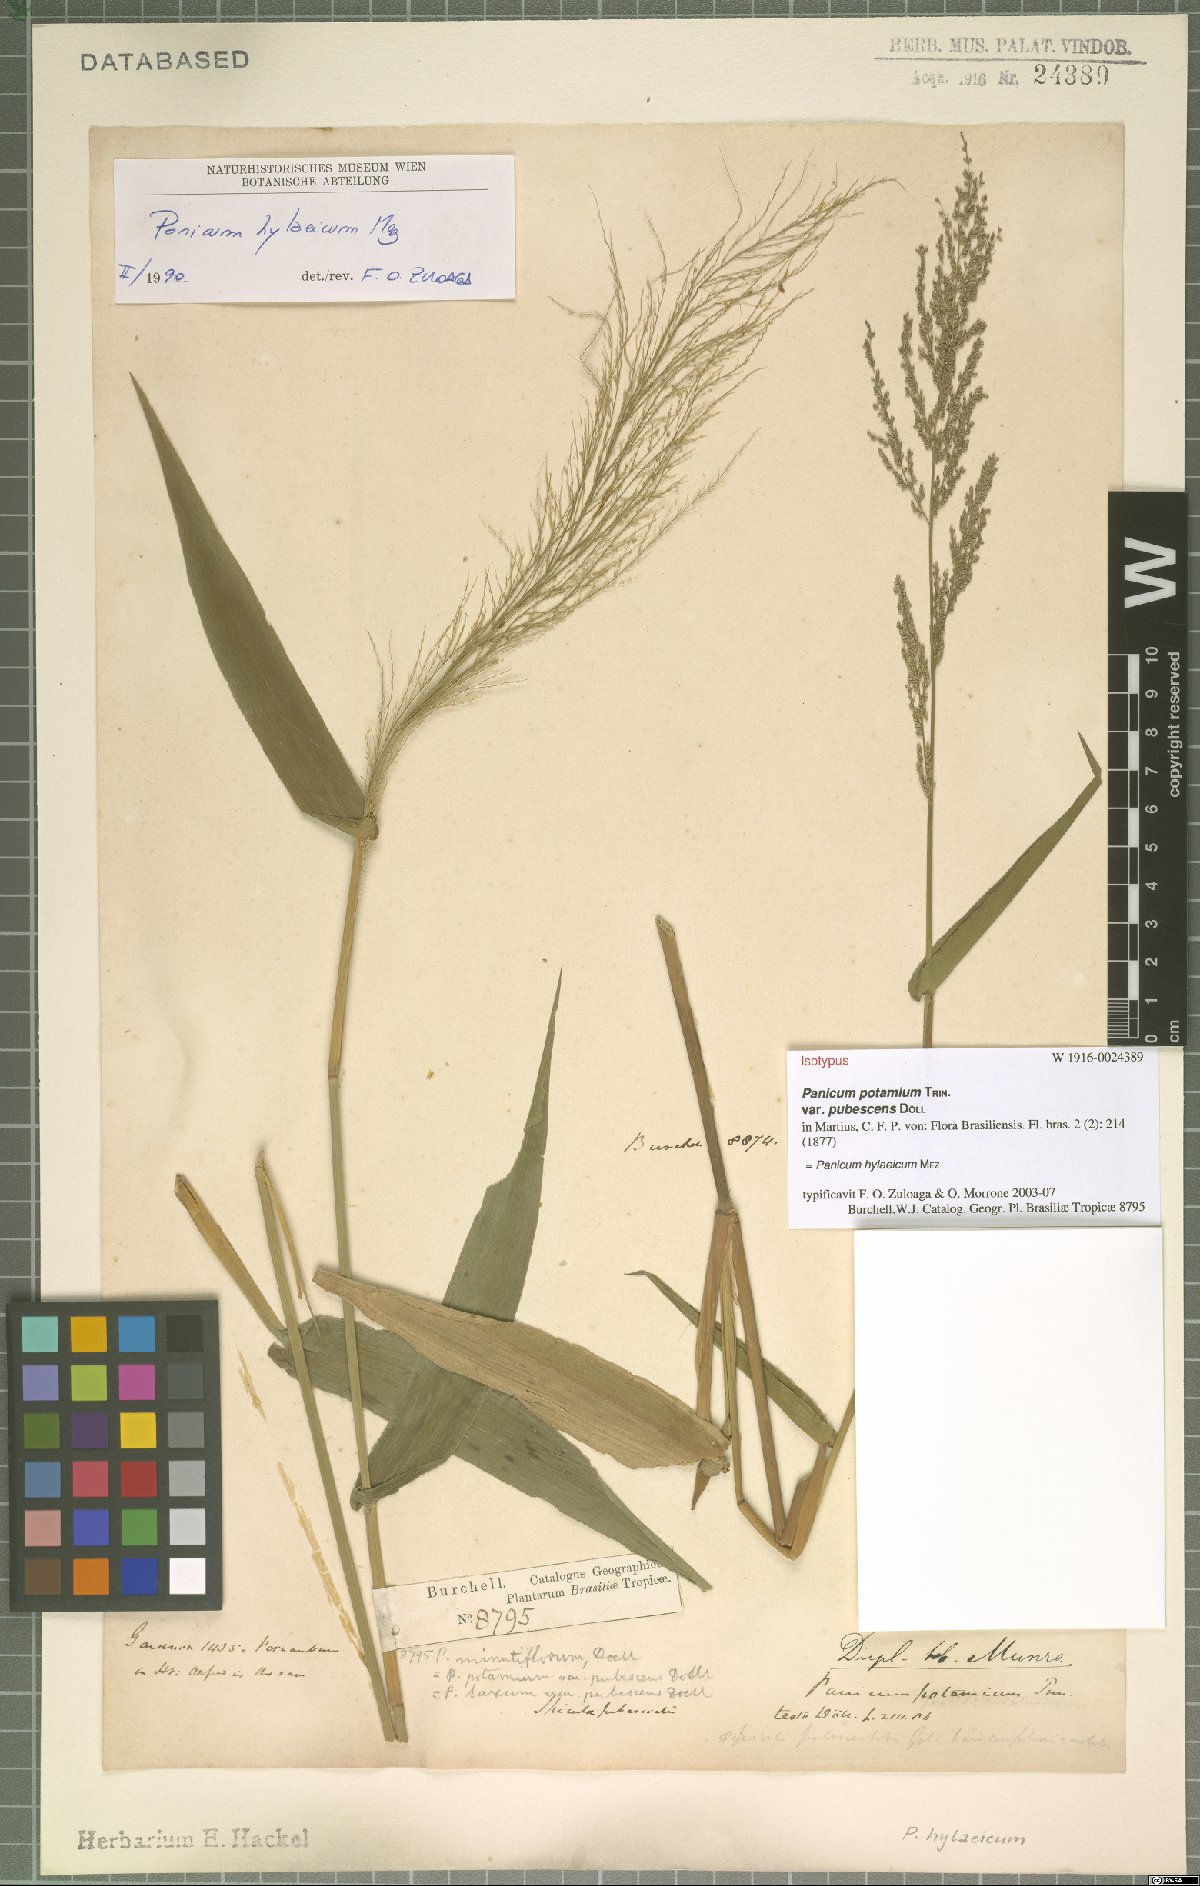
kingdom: Plantae
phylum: Tracheophyta
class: Liliopsida
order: Poales
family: Poaceae
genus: Rugoloa
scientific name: Rugoloa hylaeica
